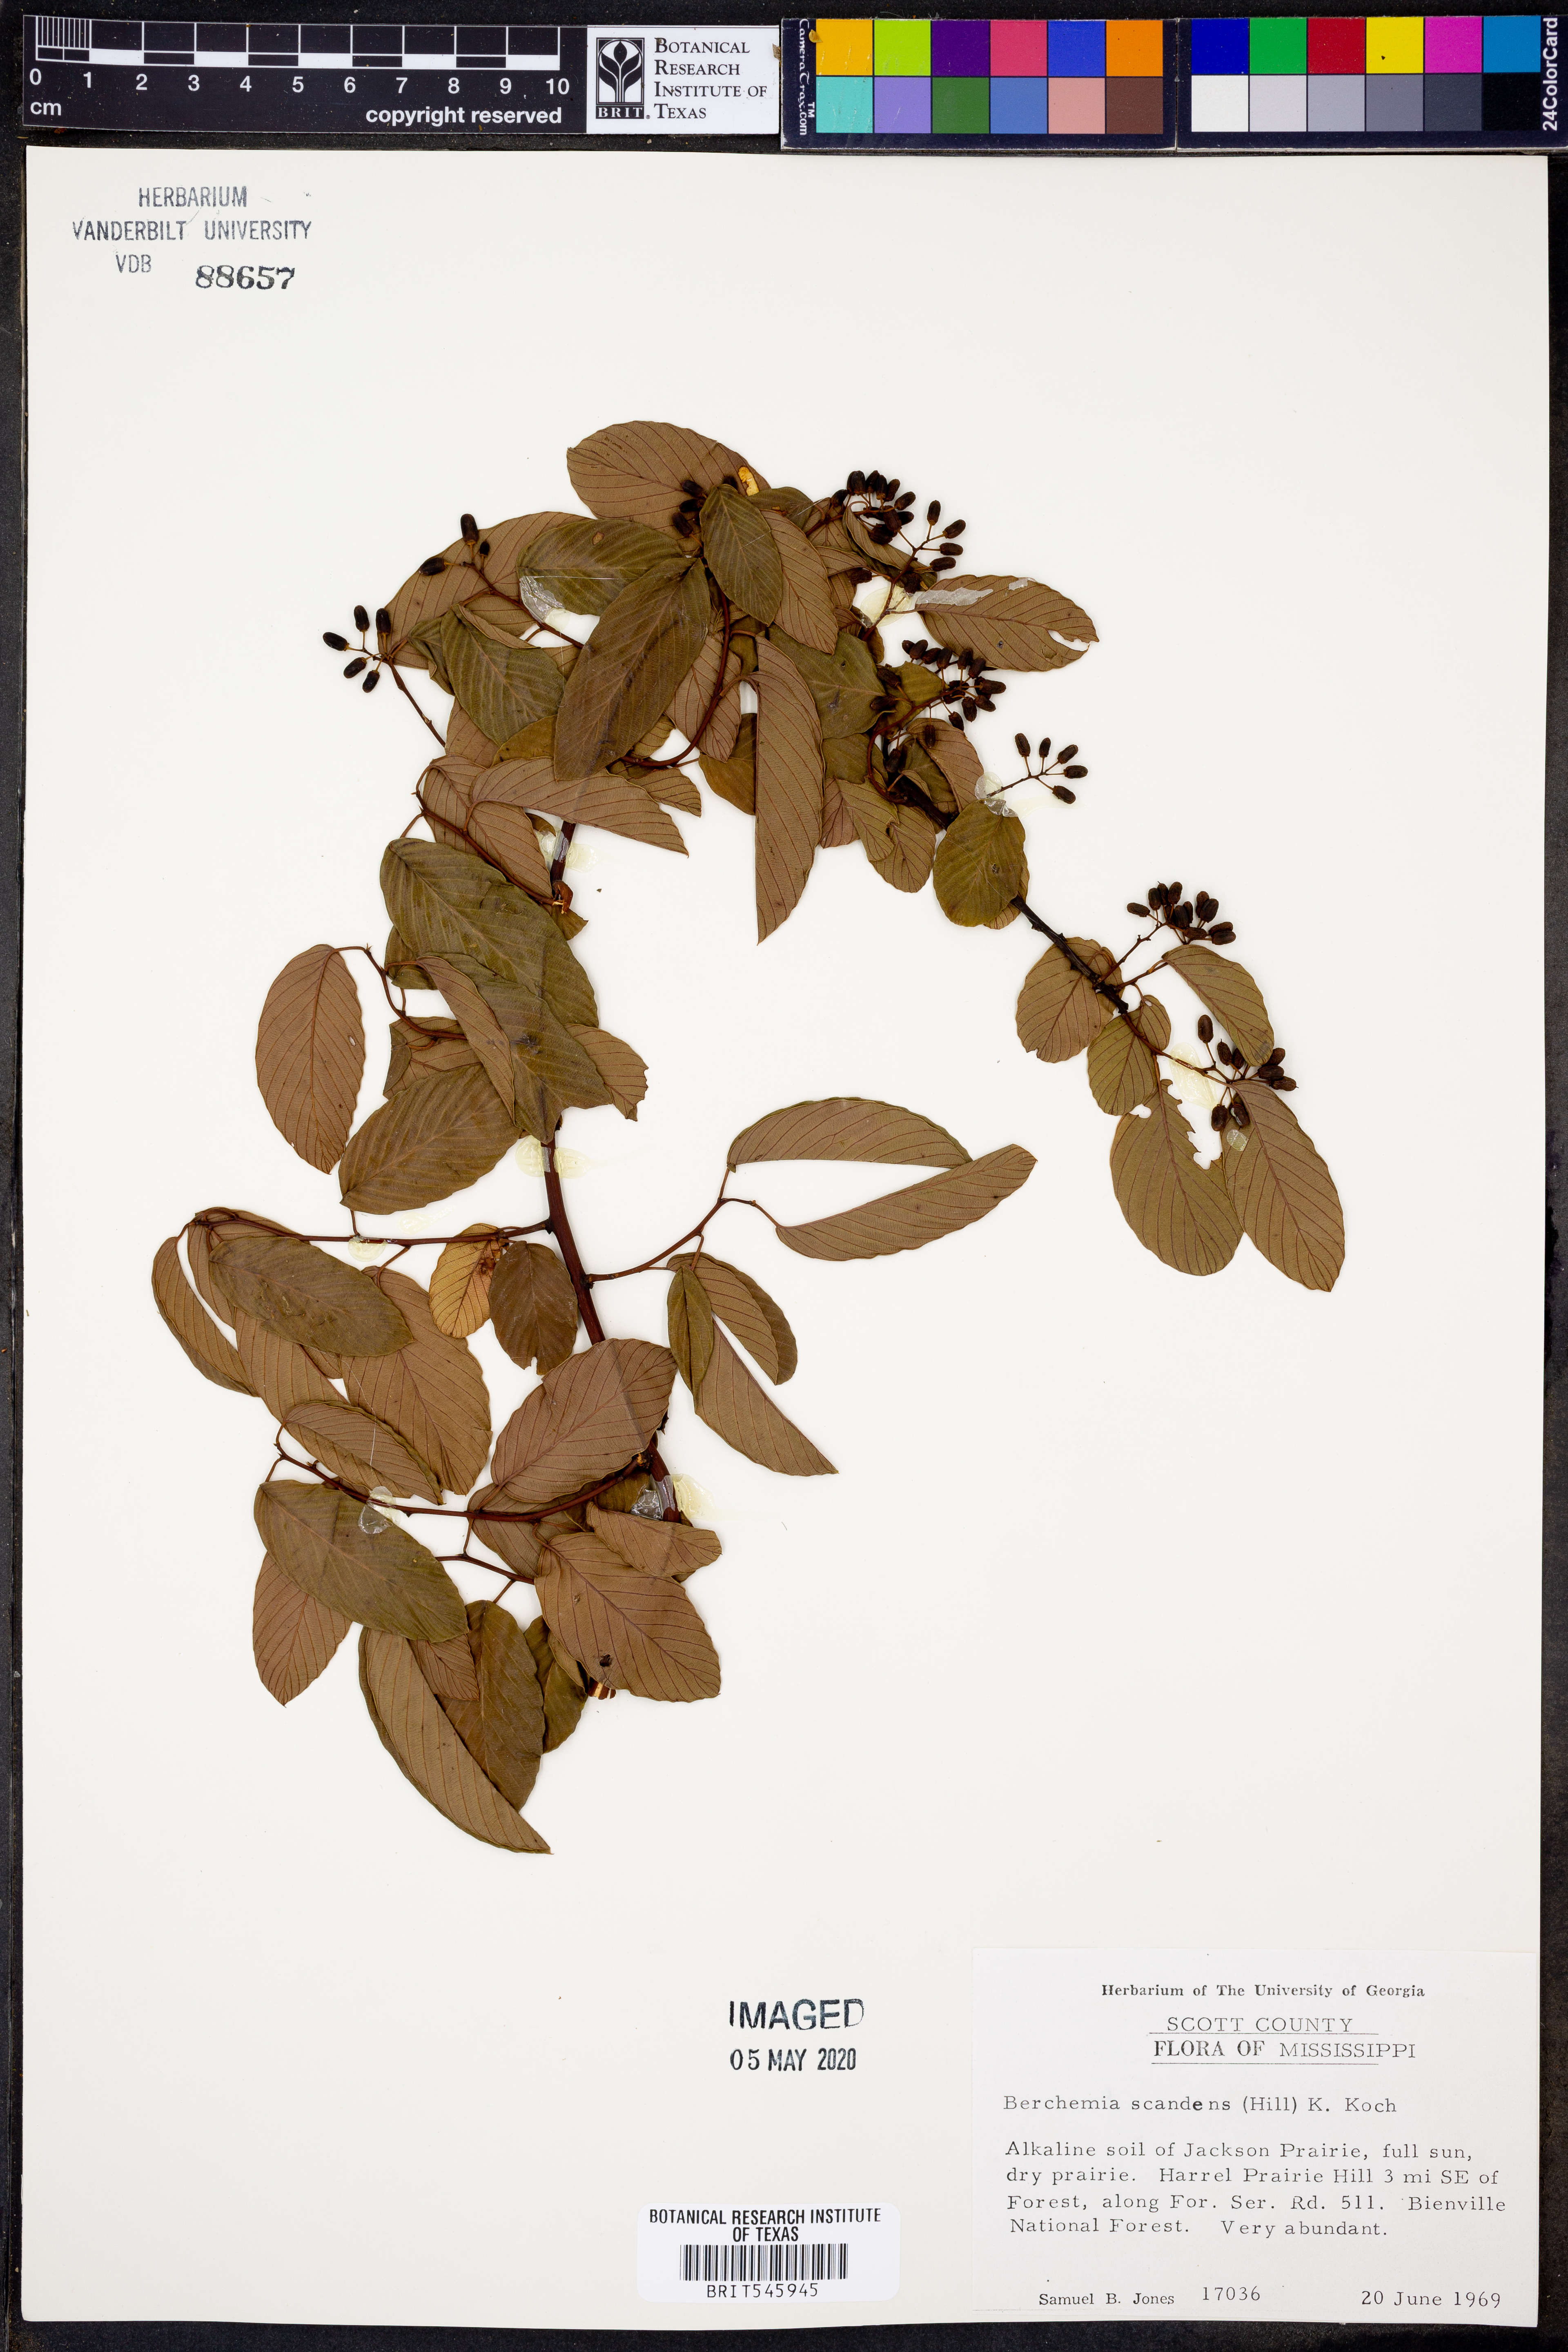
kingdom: Plantae
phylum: Tracheophyta
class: Magnoliopsida
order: Rosales
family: Rhamnaceae
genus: Berchemia
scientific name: Berchemia scandens
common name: Supplejack
